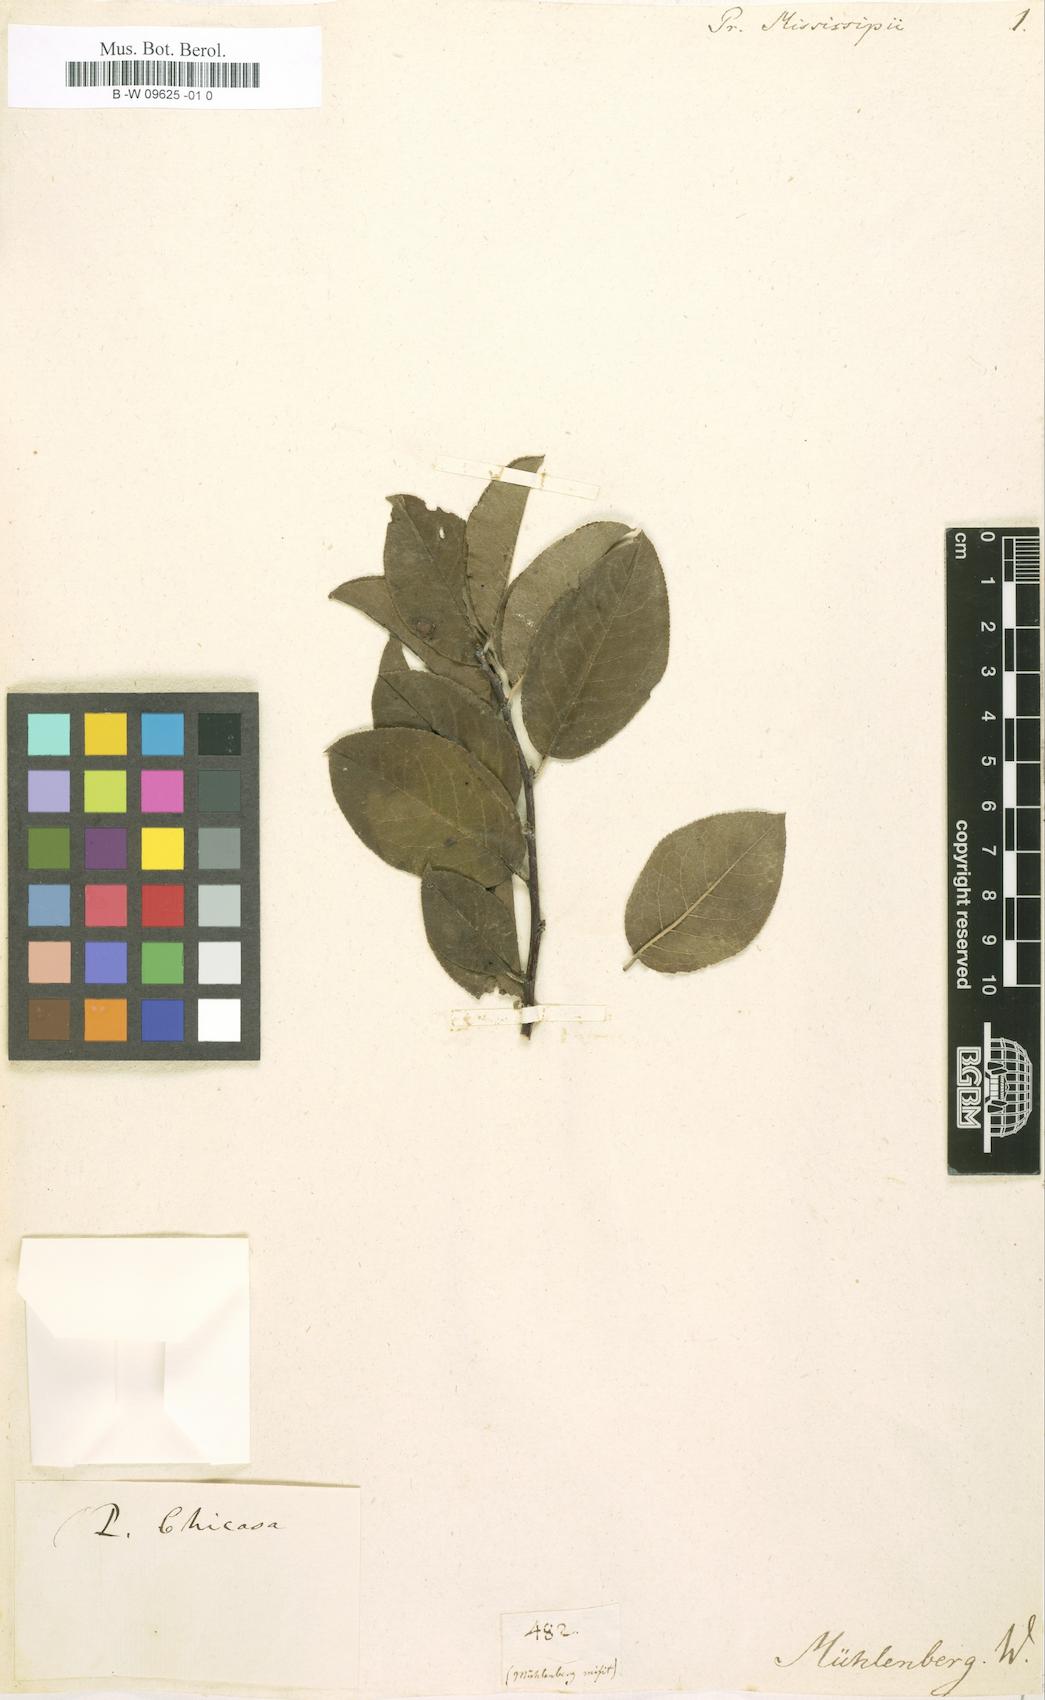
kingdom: Plantae
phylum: Tracheophyta
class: Magnoliopsida
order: Rosales
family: Rosaceae
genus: Prunus
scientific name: Prunus americana
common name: American plum
